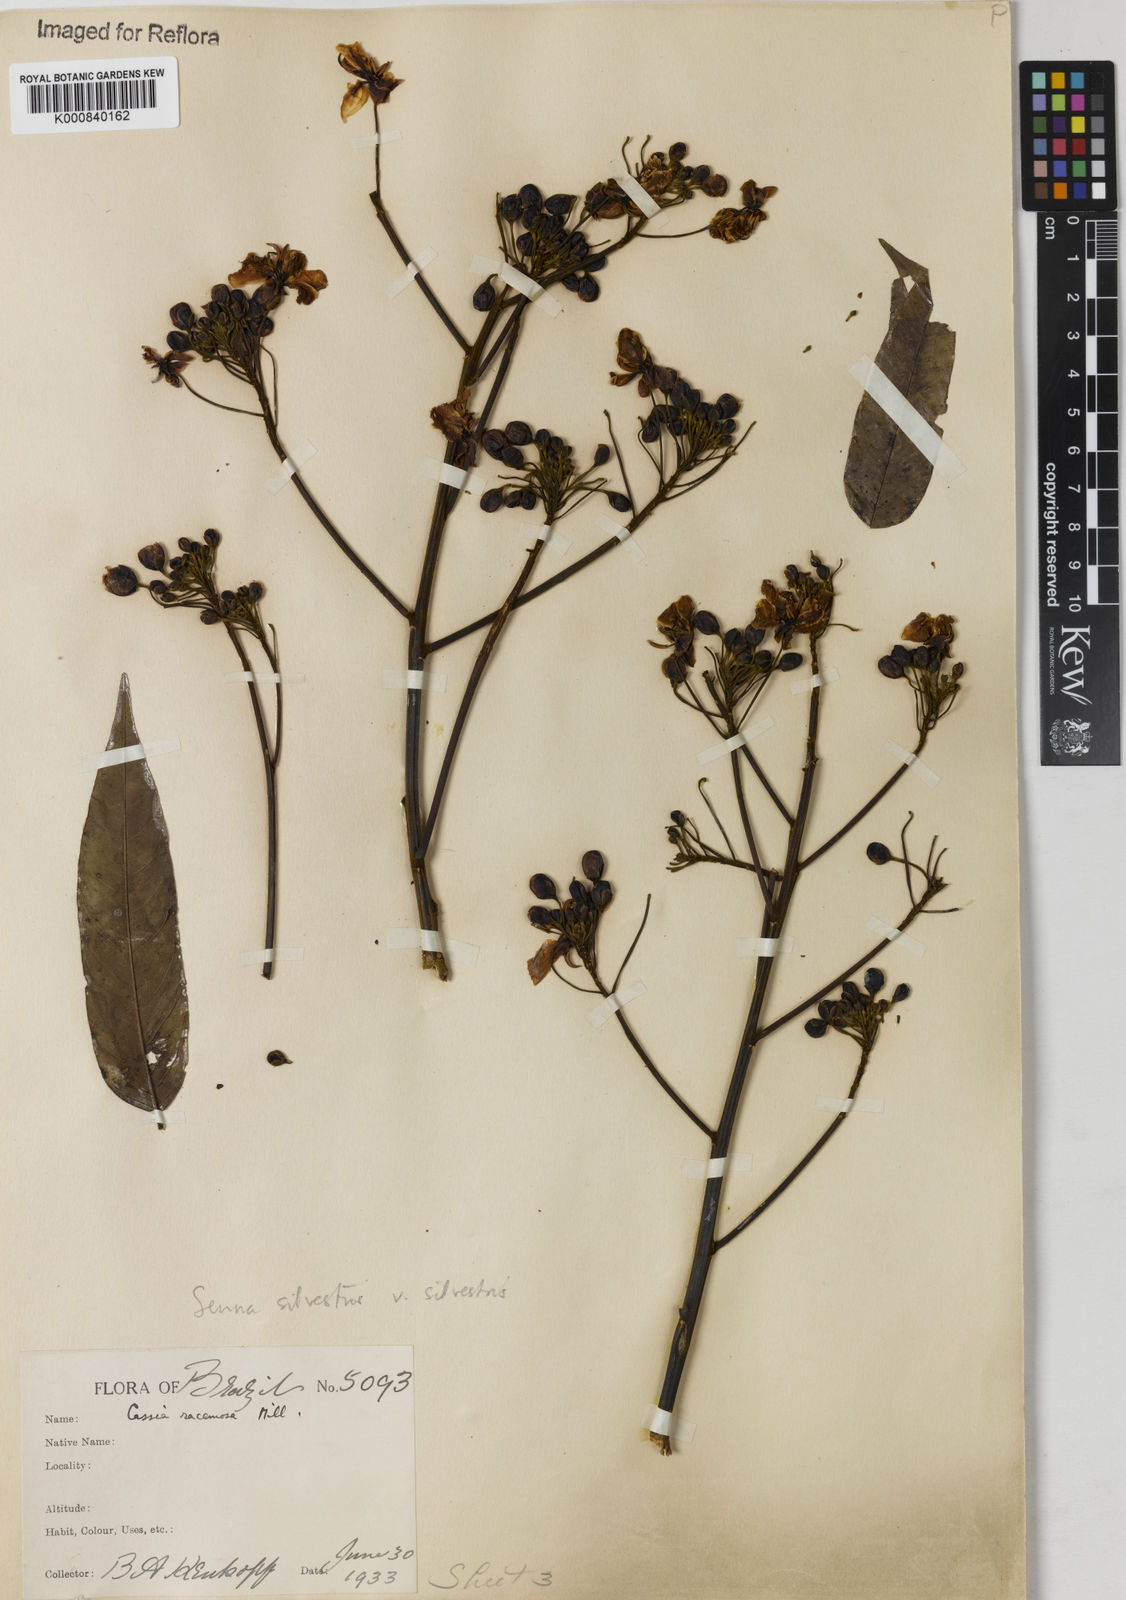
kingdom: Plantae
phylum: Tracheophyta
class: Magnoliopsida
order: Fabales
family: Fabaceae
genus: Senna
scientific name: Senna silvestris
